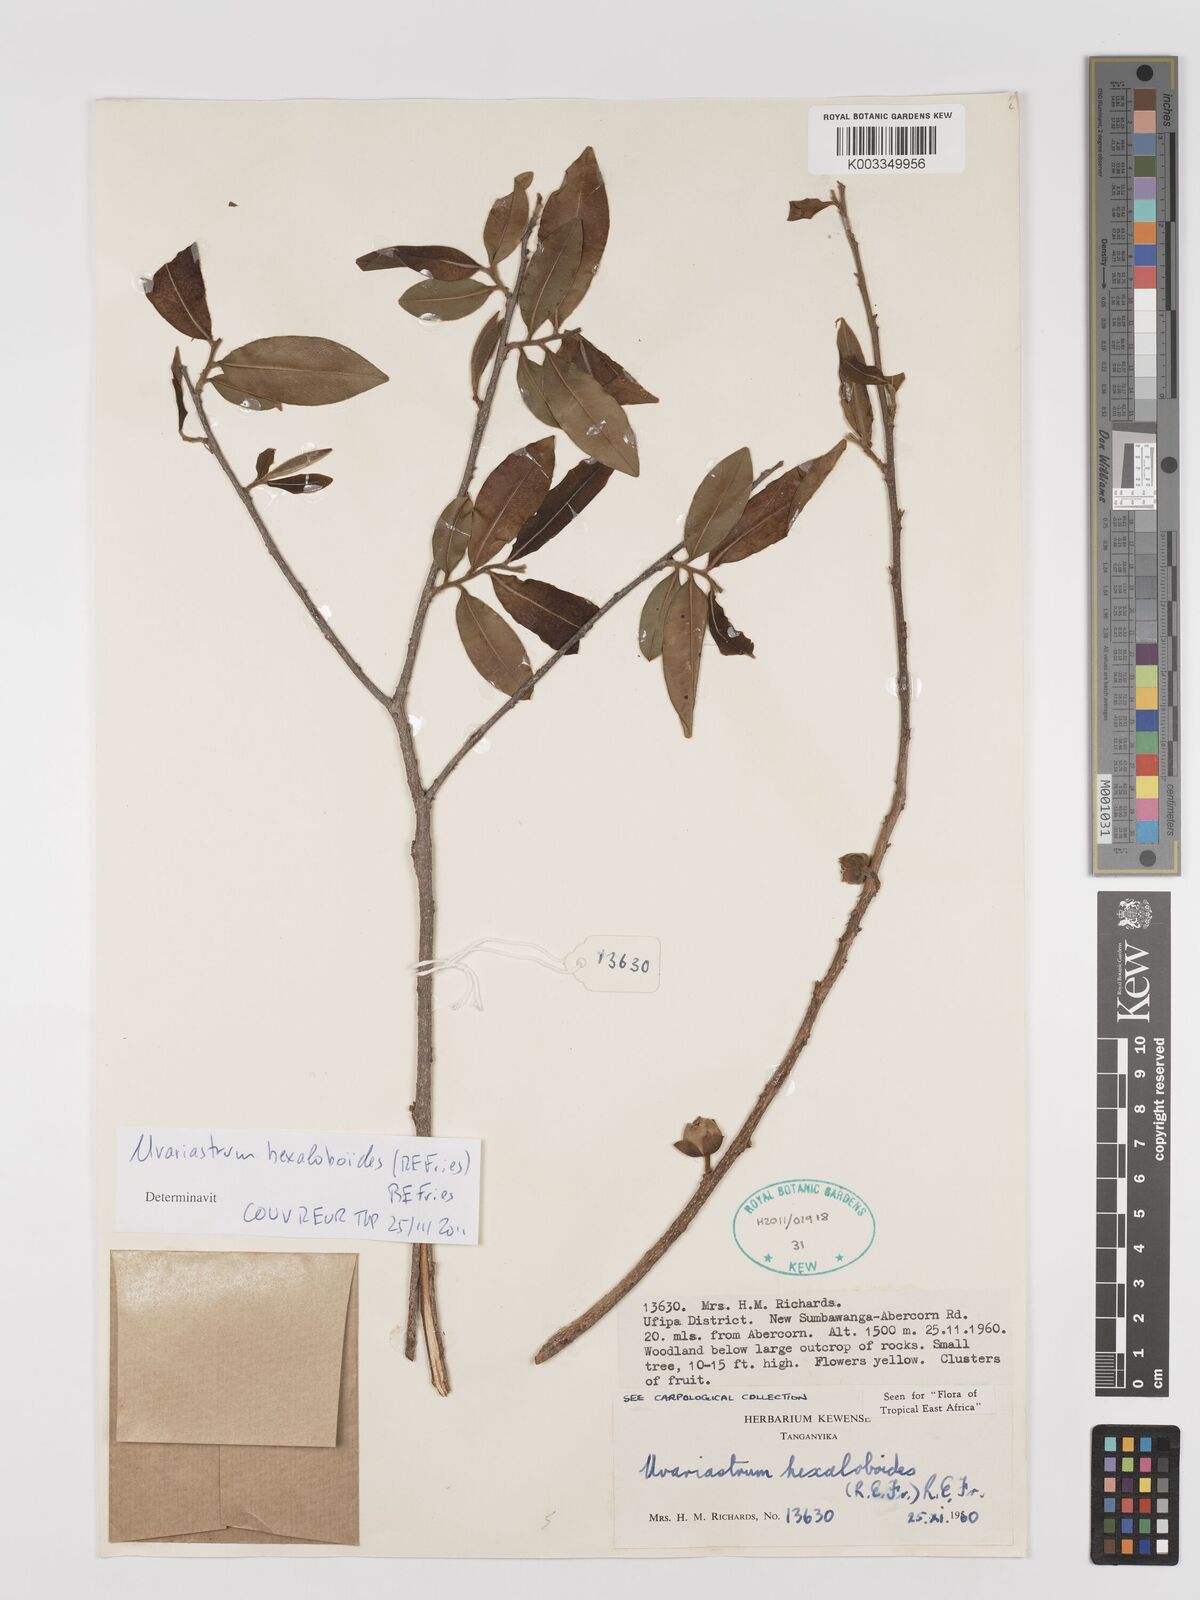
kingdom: Plantae
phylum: Tracheophyta
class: Magnoliopsida
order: Magnoliales
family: Annonaceae
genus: Uvariastrum
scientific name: Uvariastrum hexaloboides
